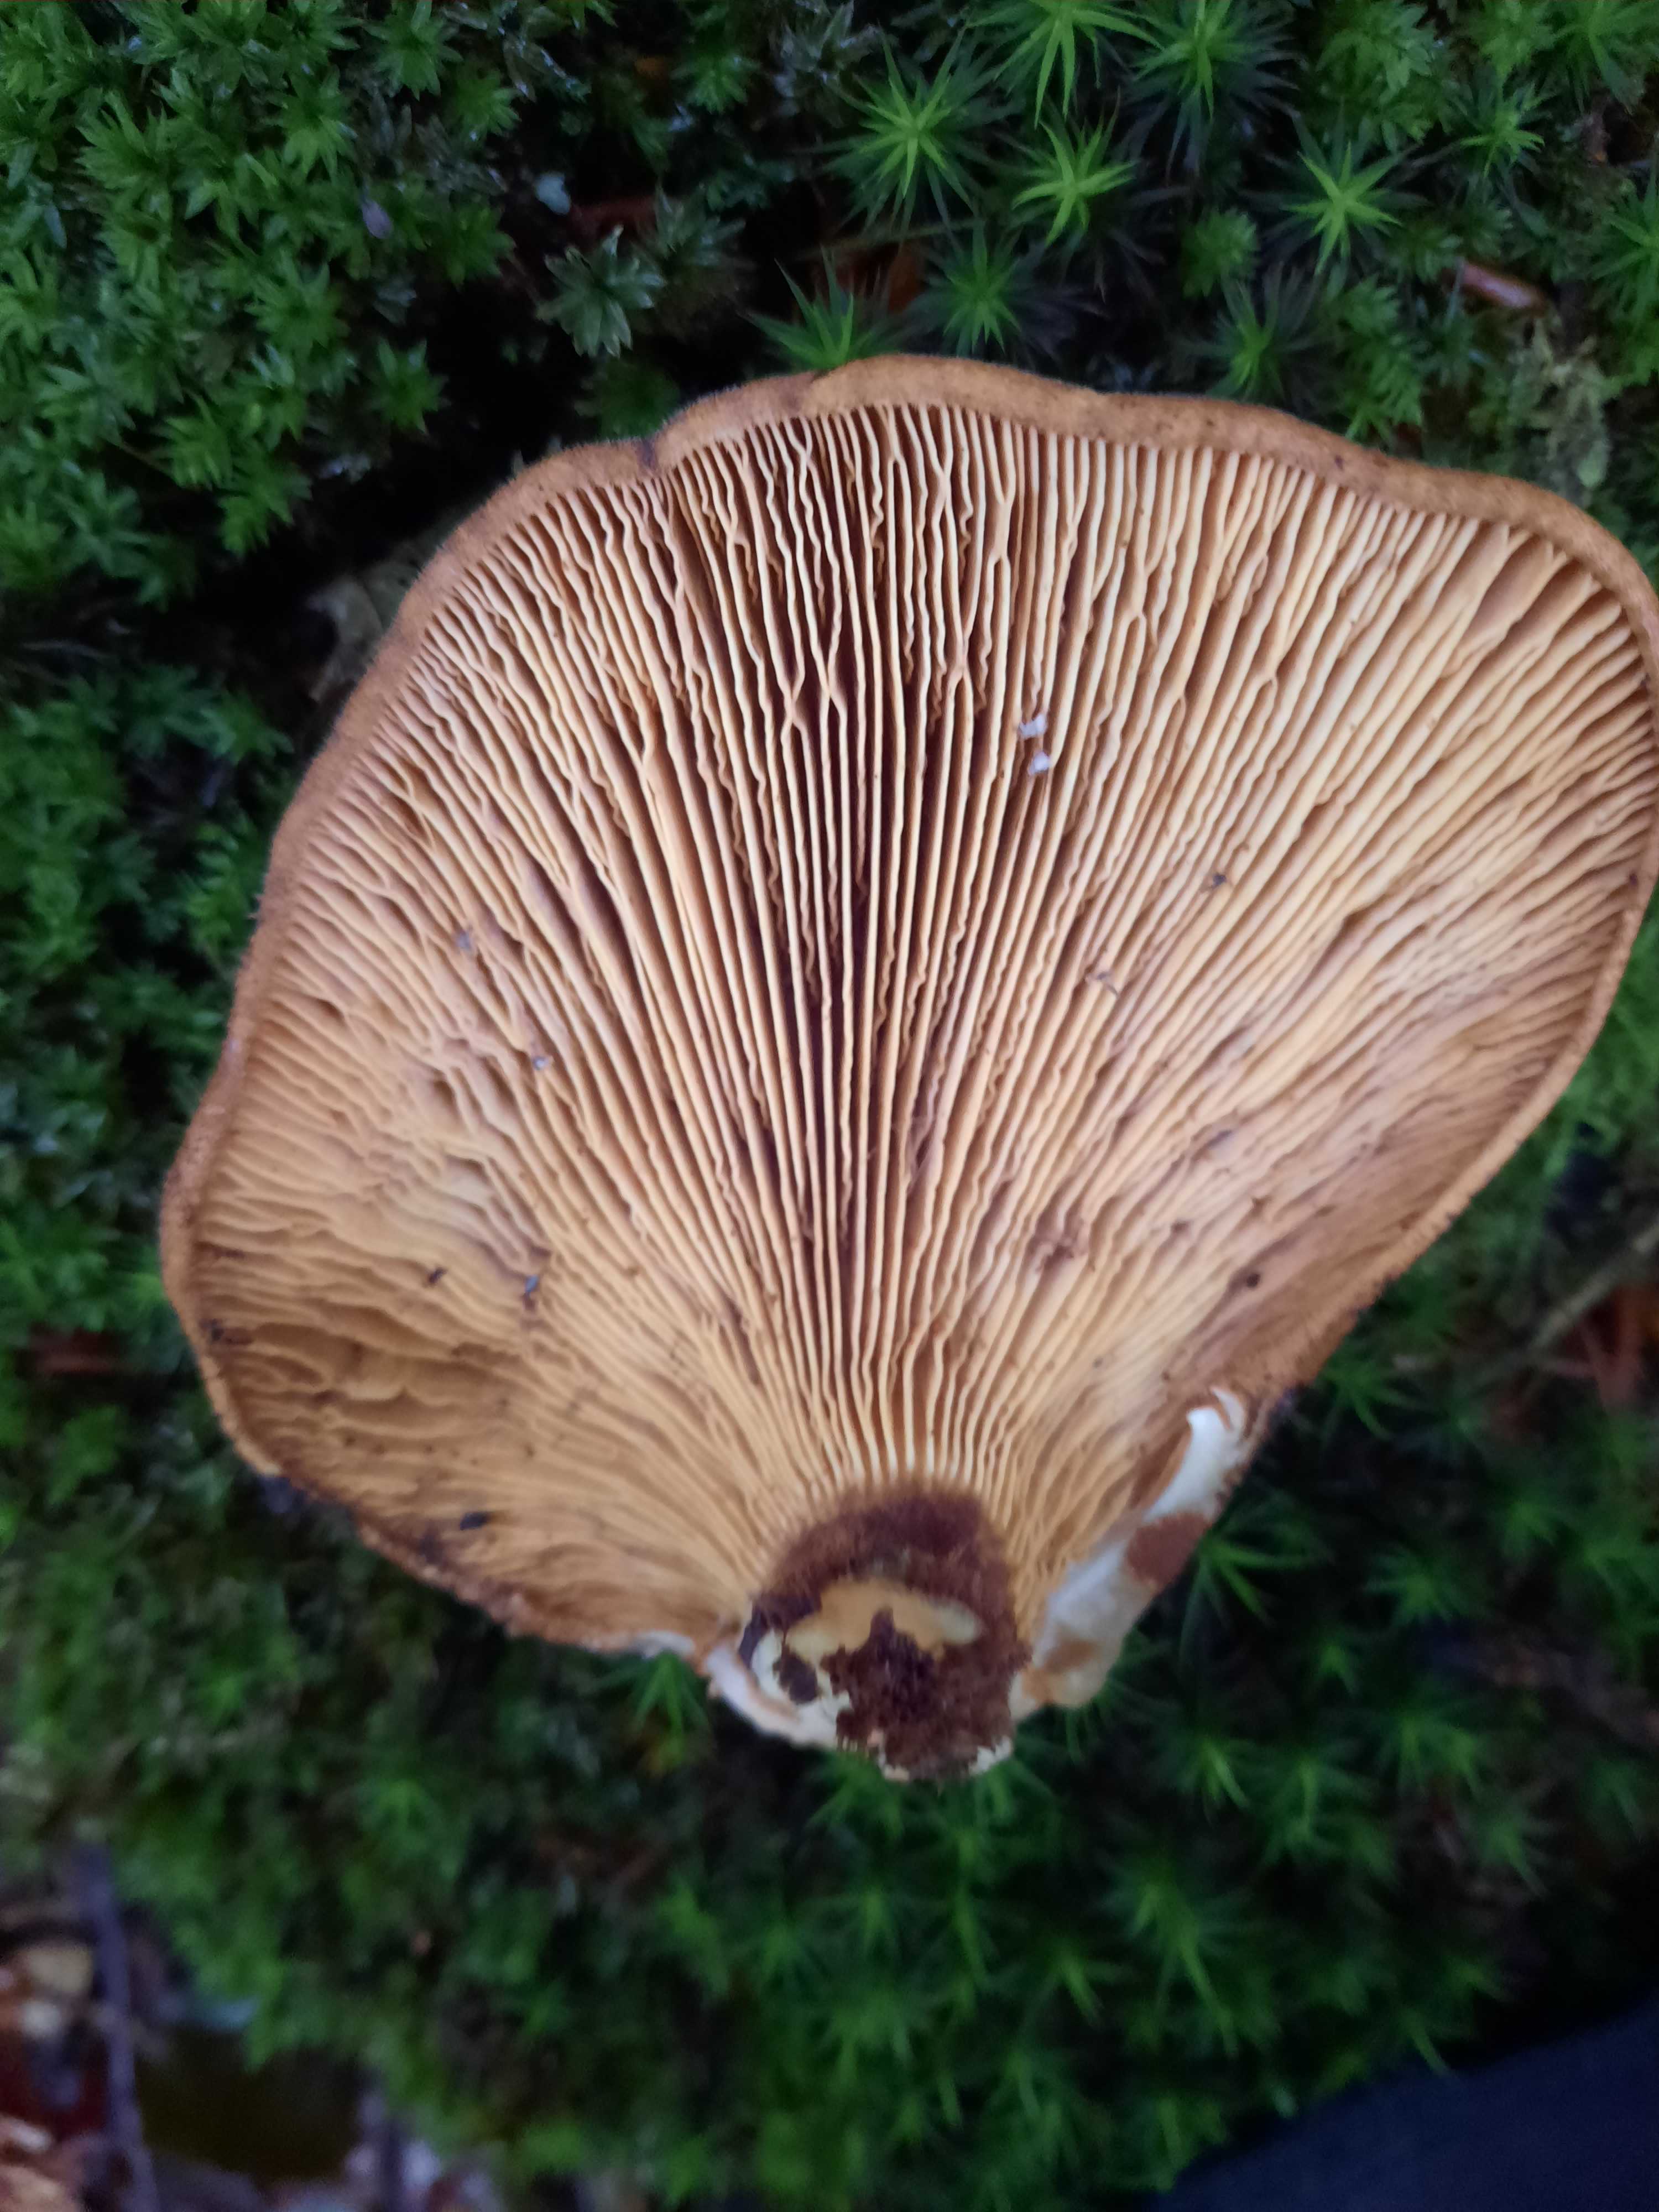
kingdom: Fungi
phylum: Basidiomycota
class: Agaricomycetes
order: Boletales
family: Tapinellaceae
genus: Tapinella
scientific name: Tapinella atrotomentosa
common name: sortfiltet viftesvamp
